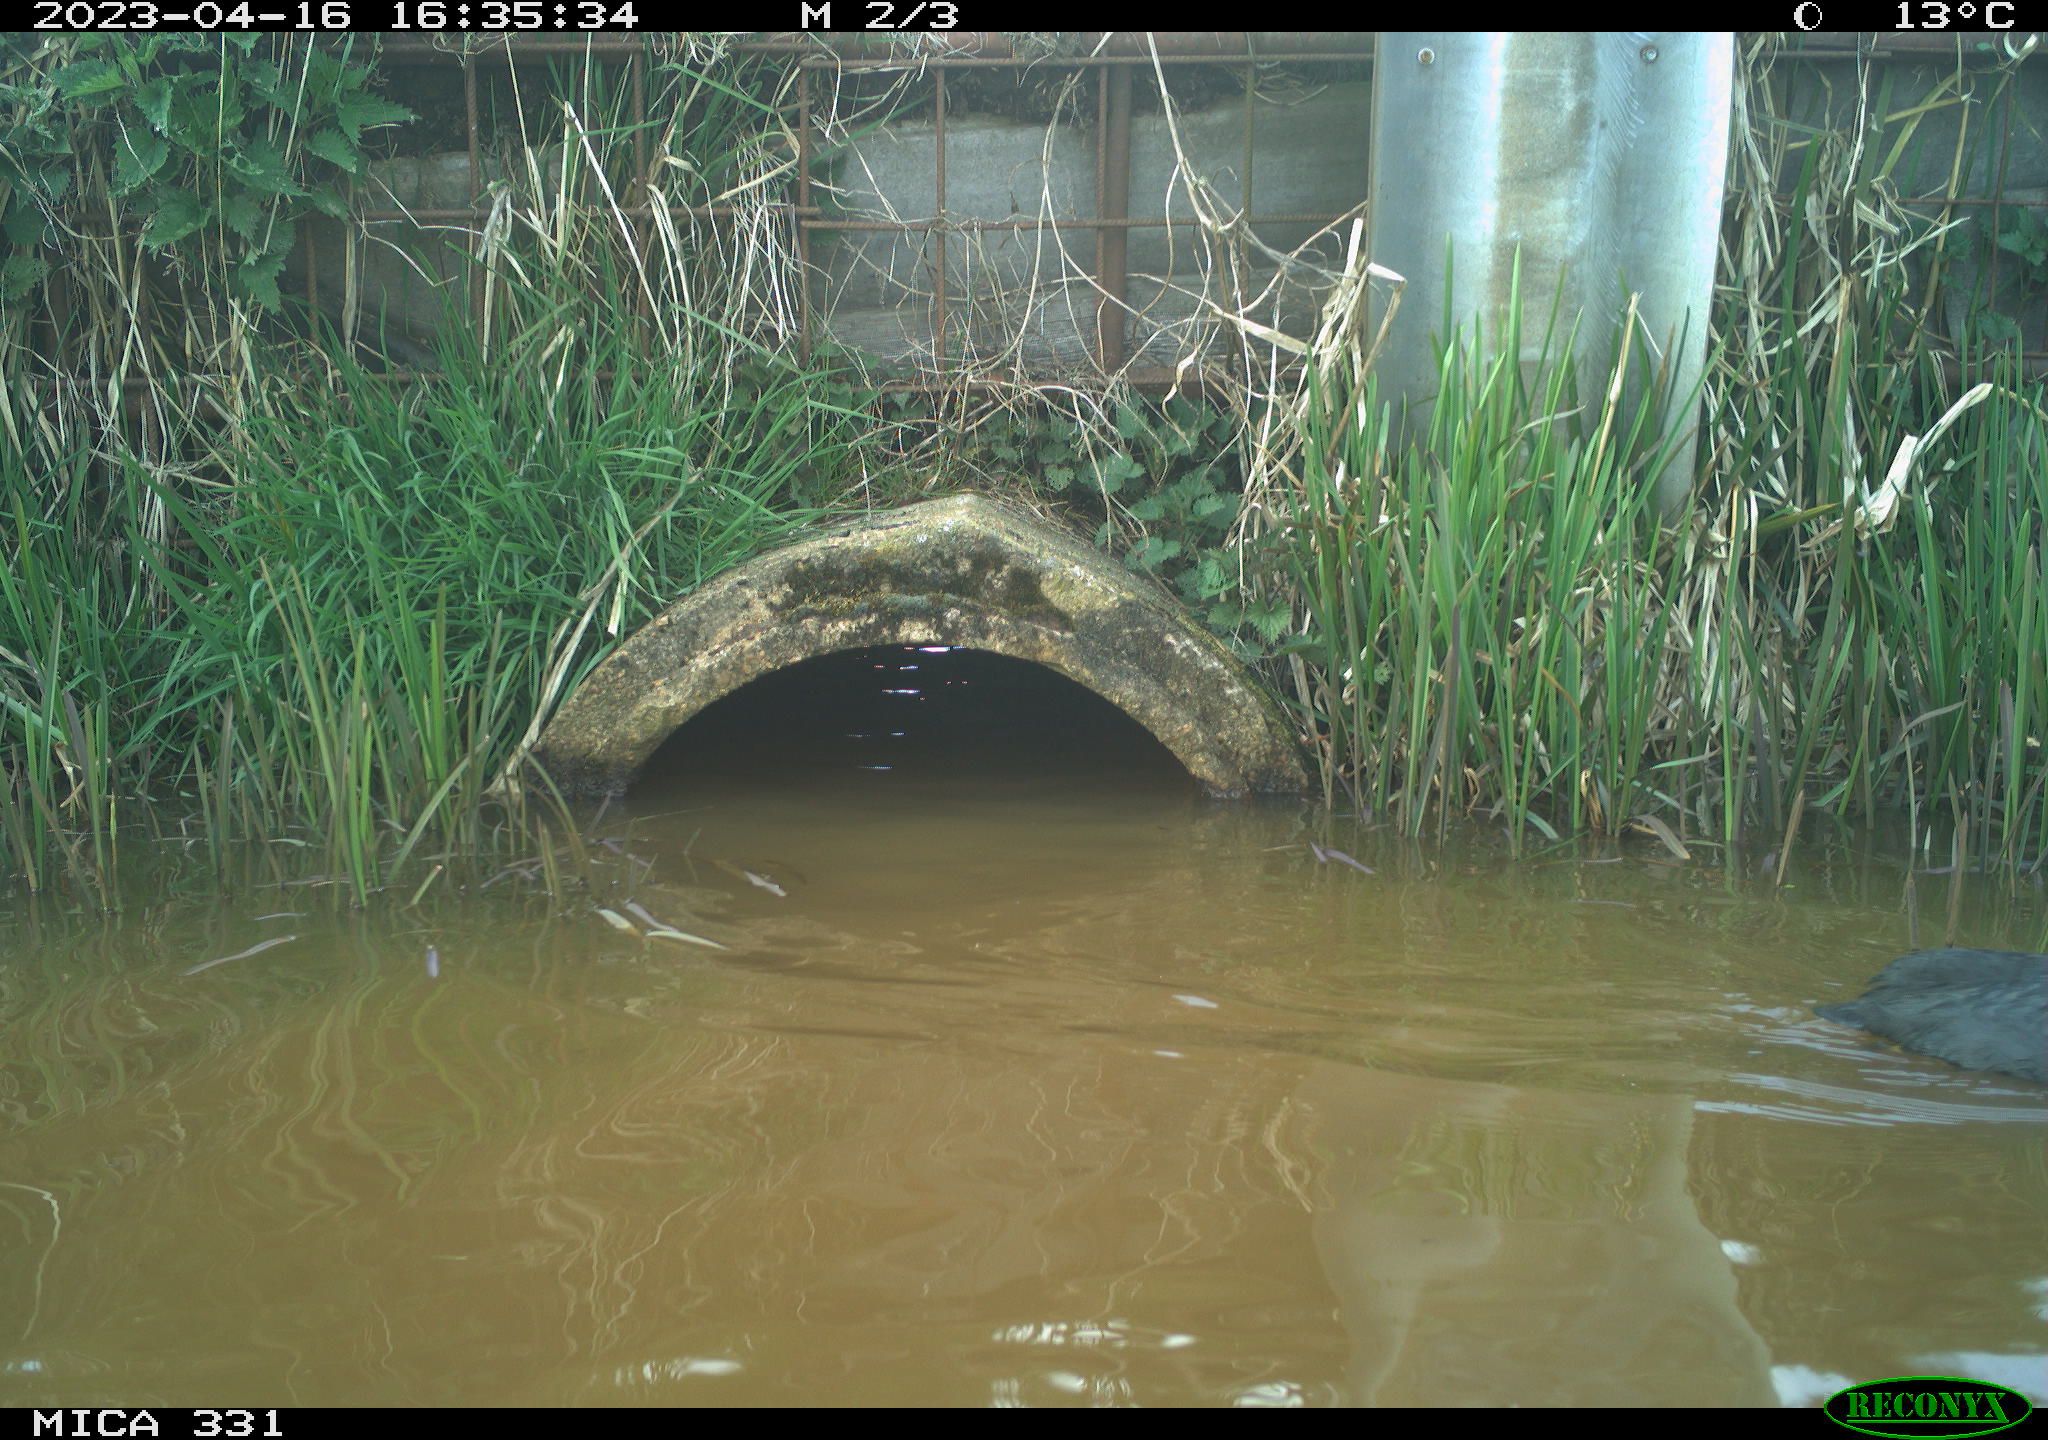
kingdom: Animalia
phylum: Chordata
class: Aves
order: Gruiformes
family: Rallidae
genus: Fulica
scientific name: Fulica atra
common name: Eurasian coot
